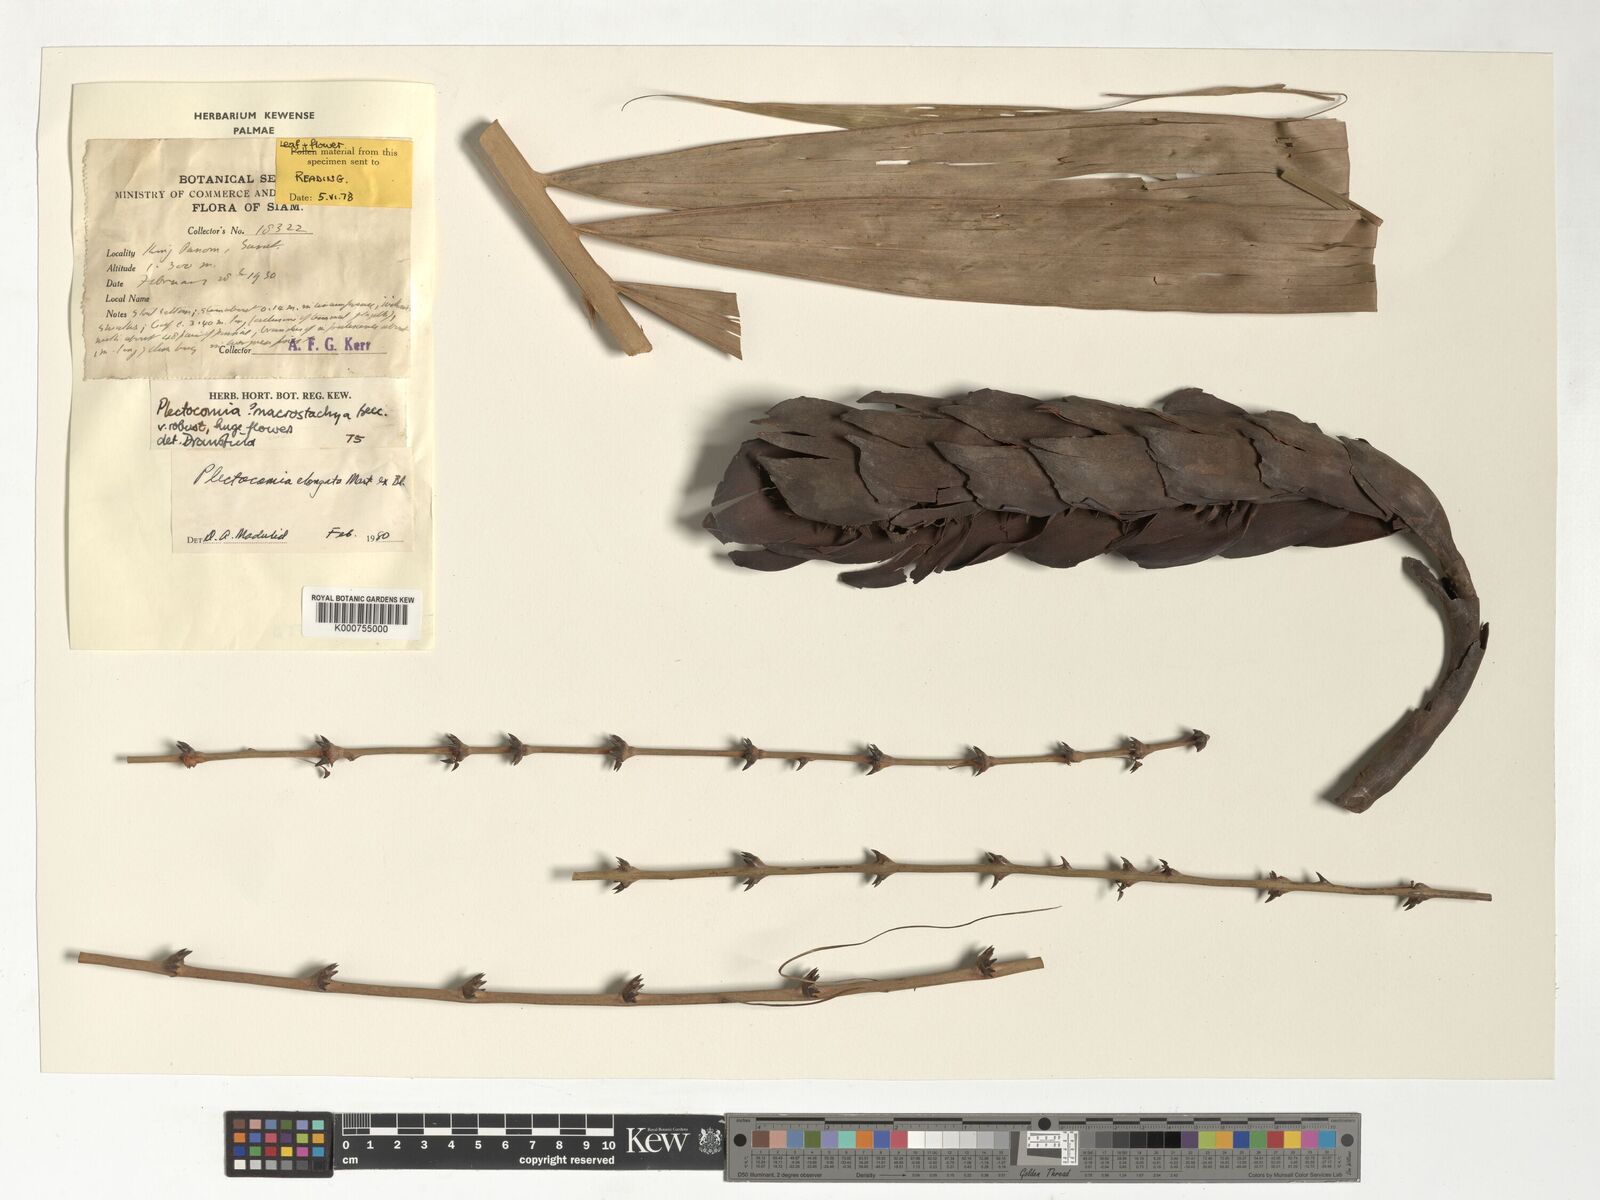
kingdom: Plantae
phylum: Tracheophyta
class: Liliopsida
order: Arecales
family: Arecaceae
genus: Plectocomia
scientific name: Plectocomia elongata
